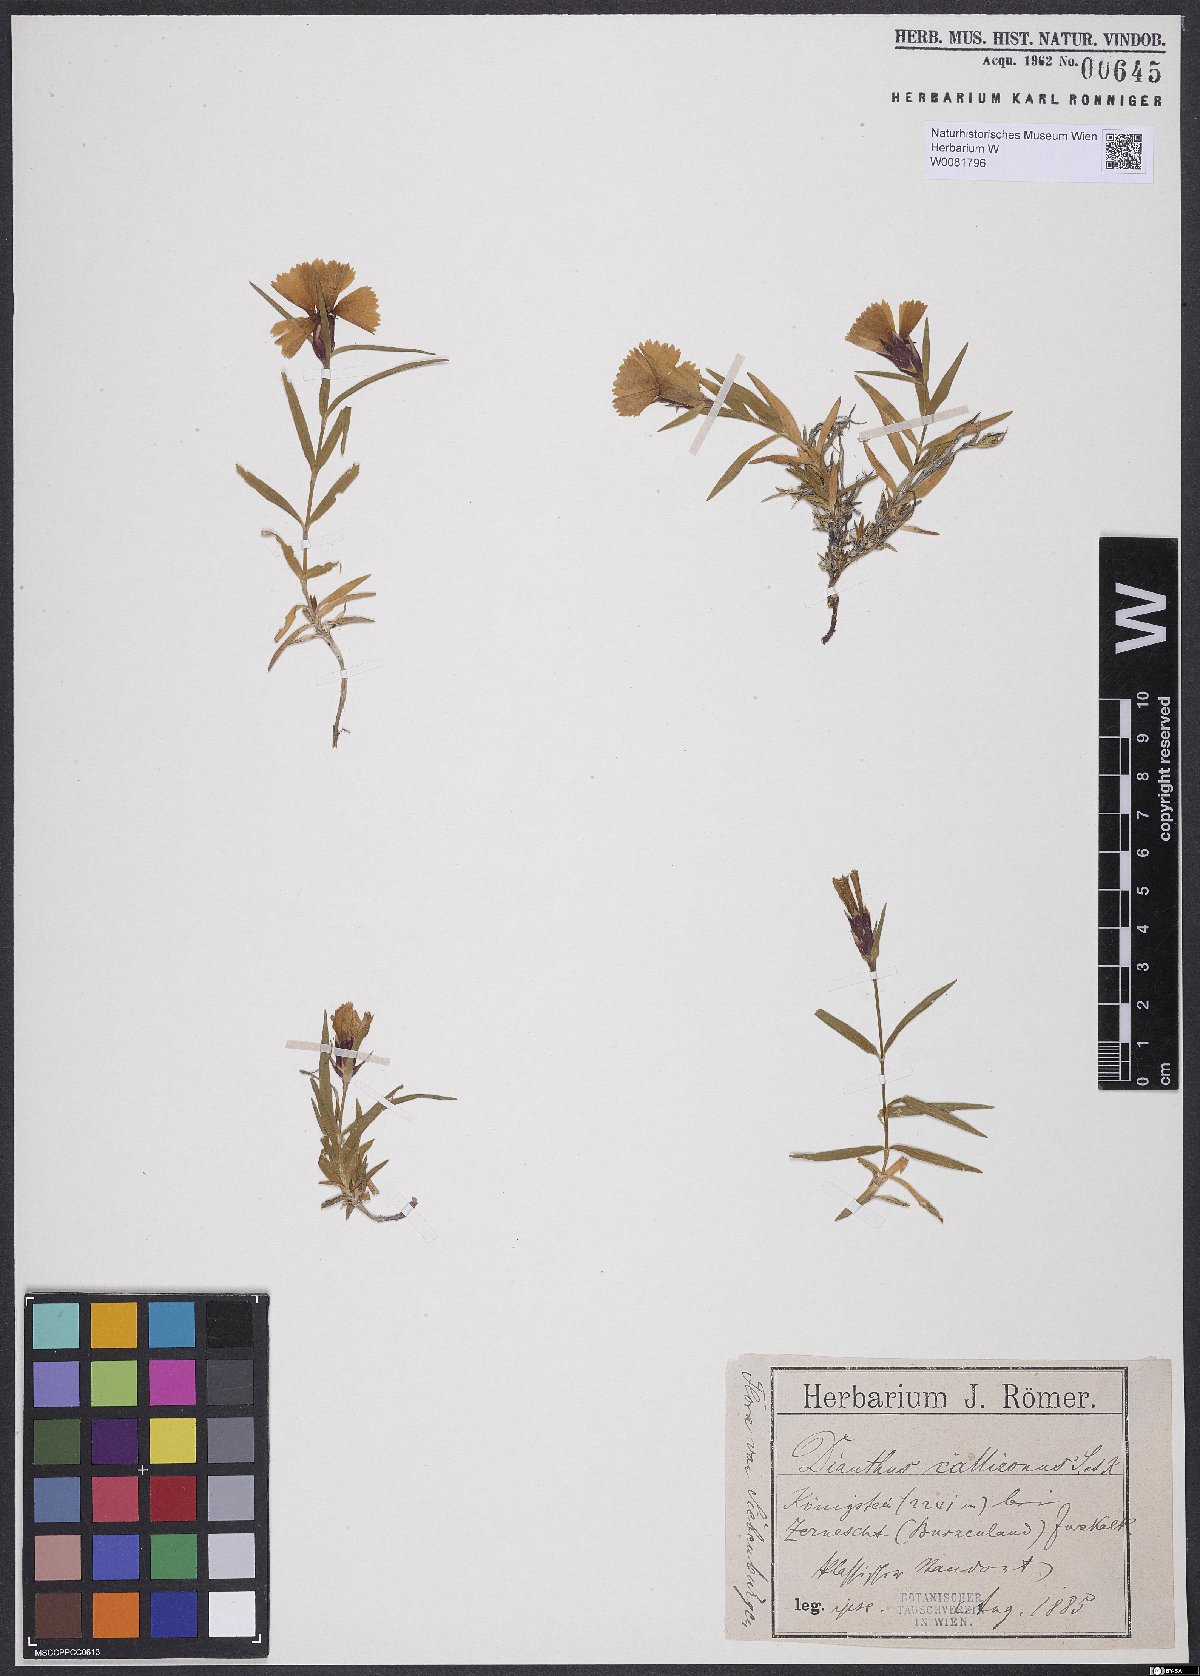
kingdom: Plantae
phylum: Tracheophyta
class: Magnoliopsida
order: Caryophyllales
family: Caryophyllaceae
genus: Dianthus
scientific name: Dianthus callizonus
